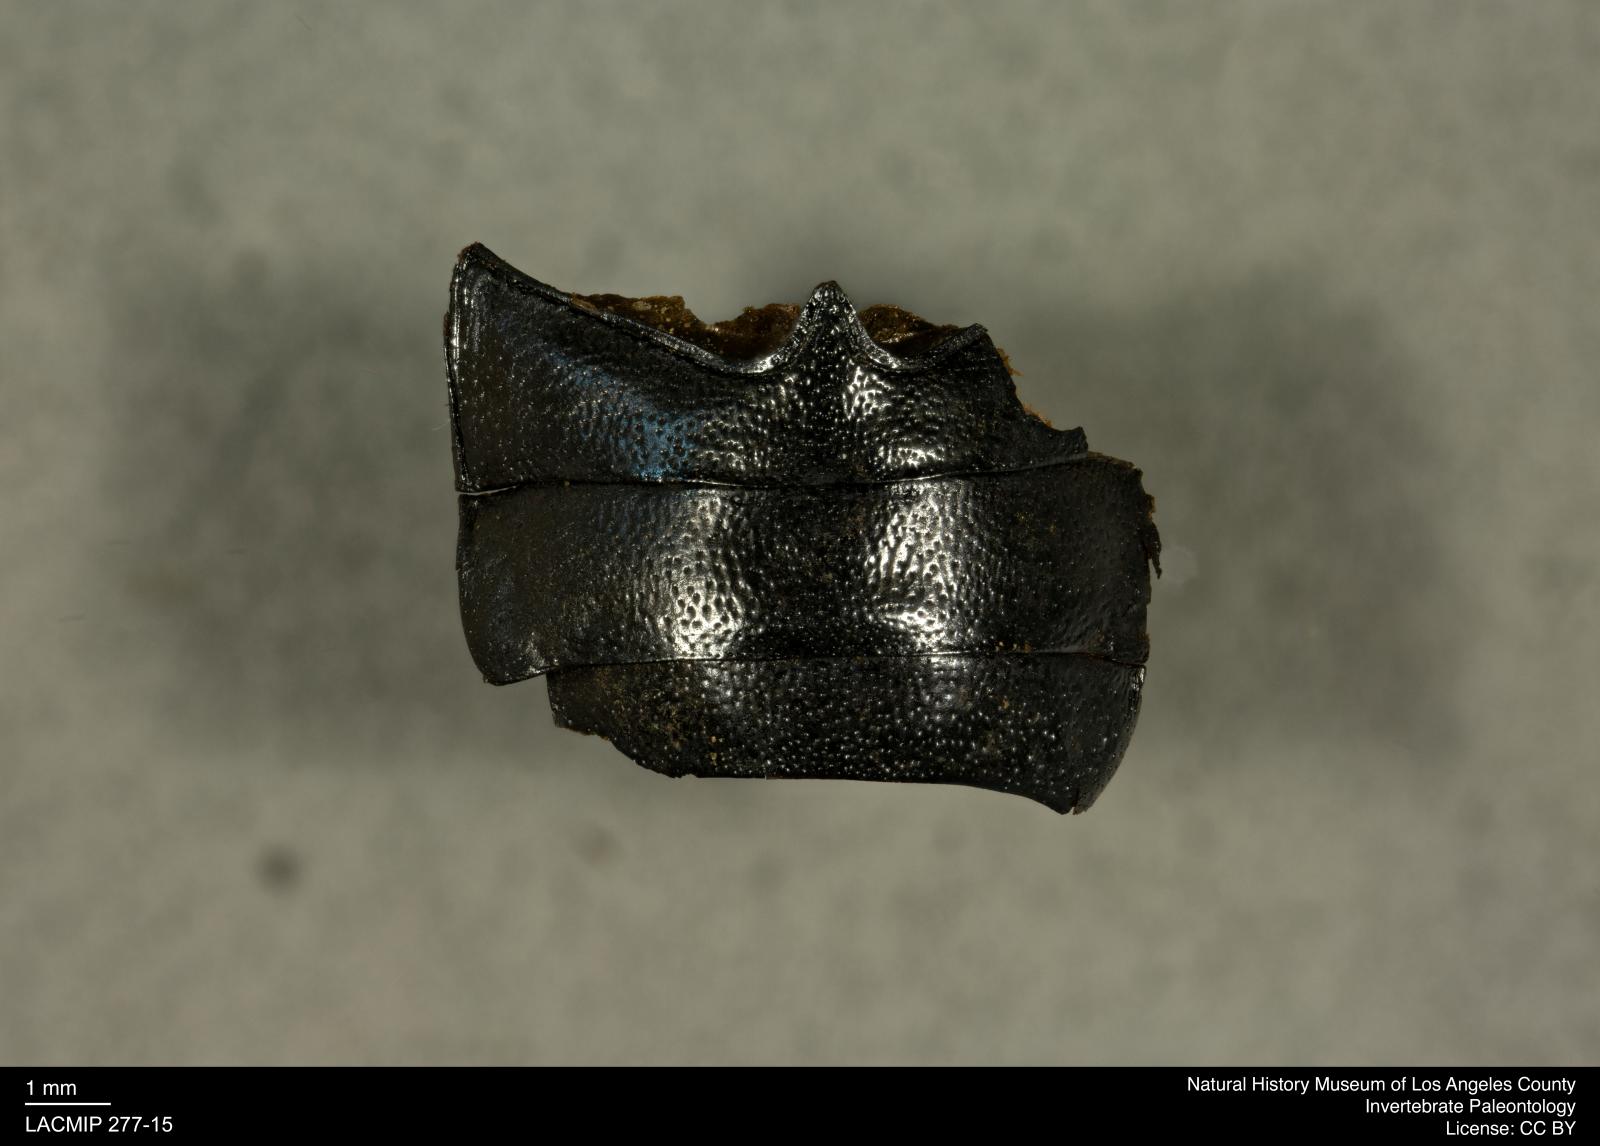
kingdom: Animalia
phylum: Arthropoda
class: Insecta
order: Coleoptera
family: Tenebrionidae
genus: Coniontis
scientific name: Coniontis abdominalis
